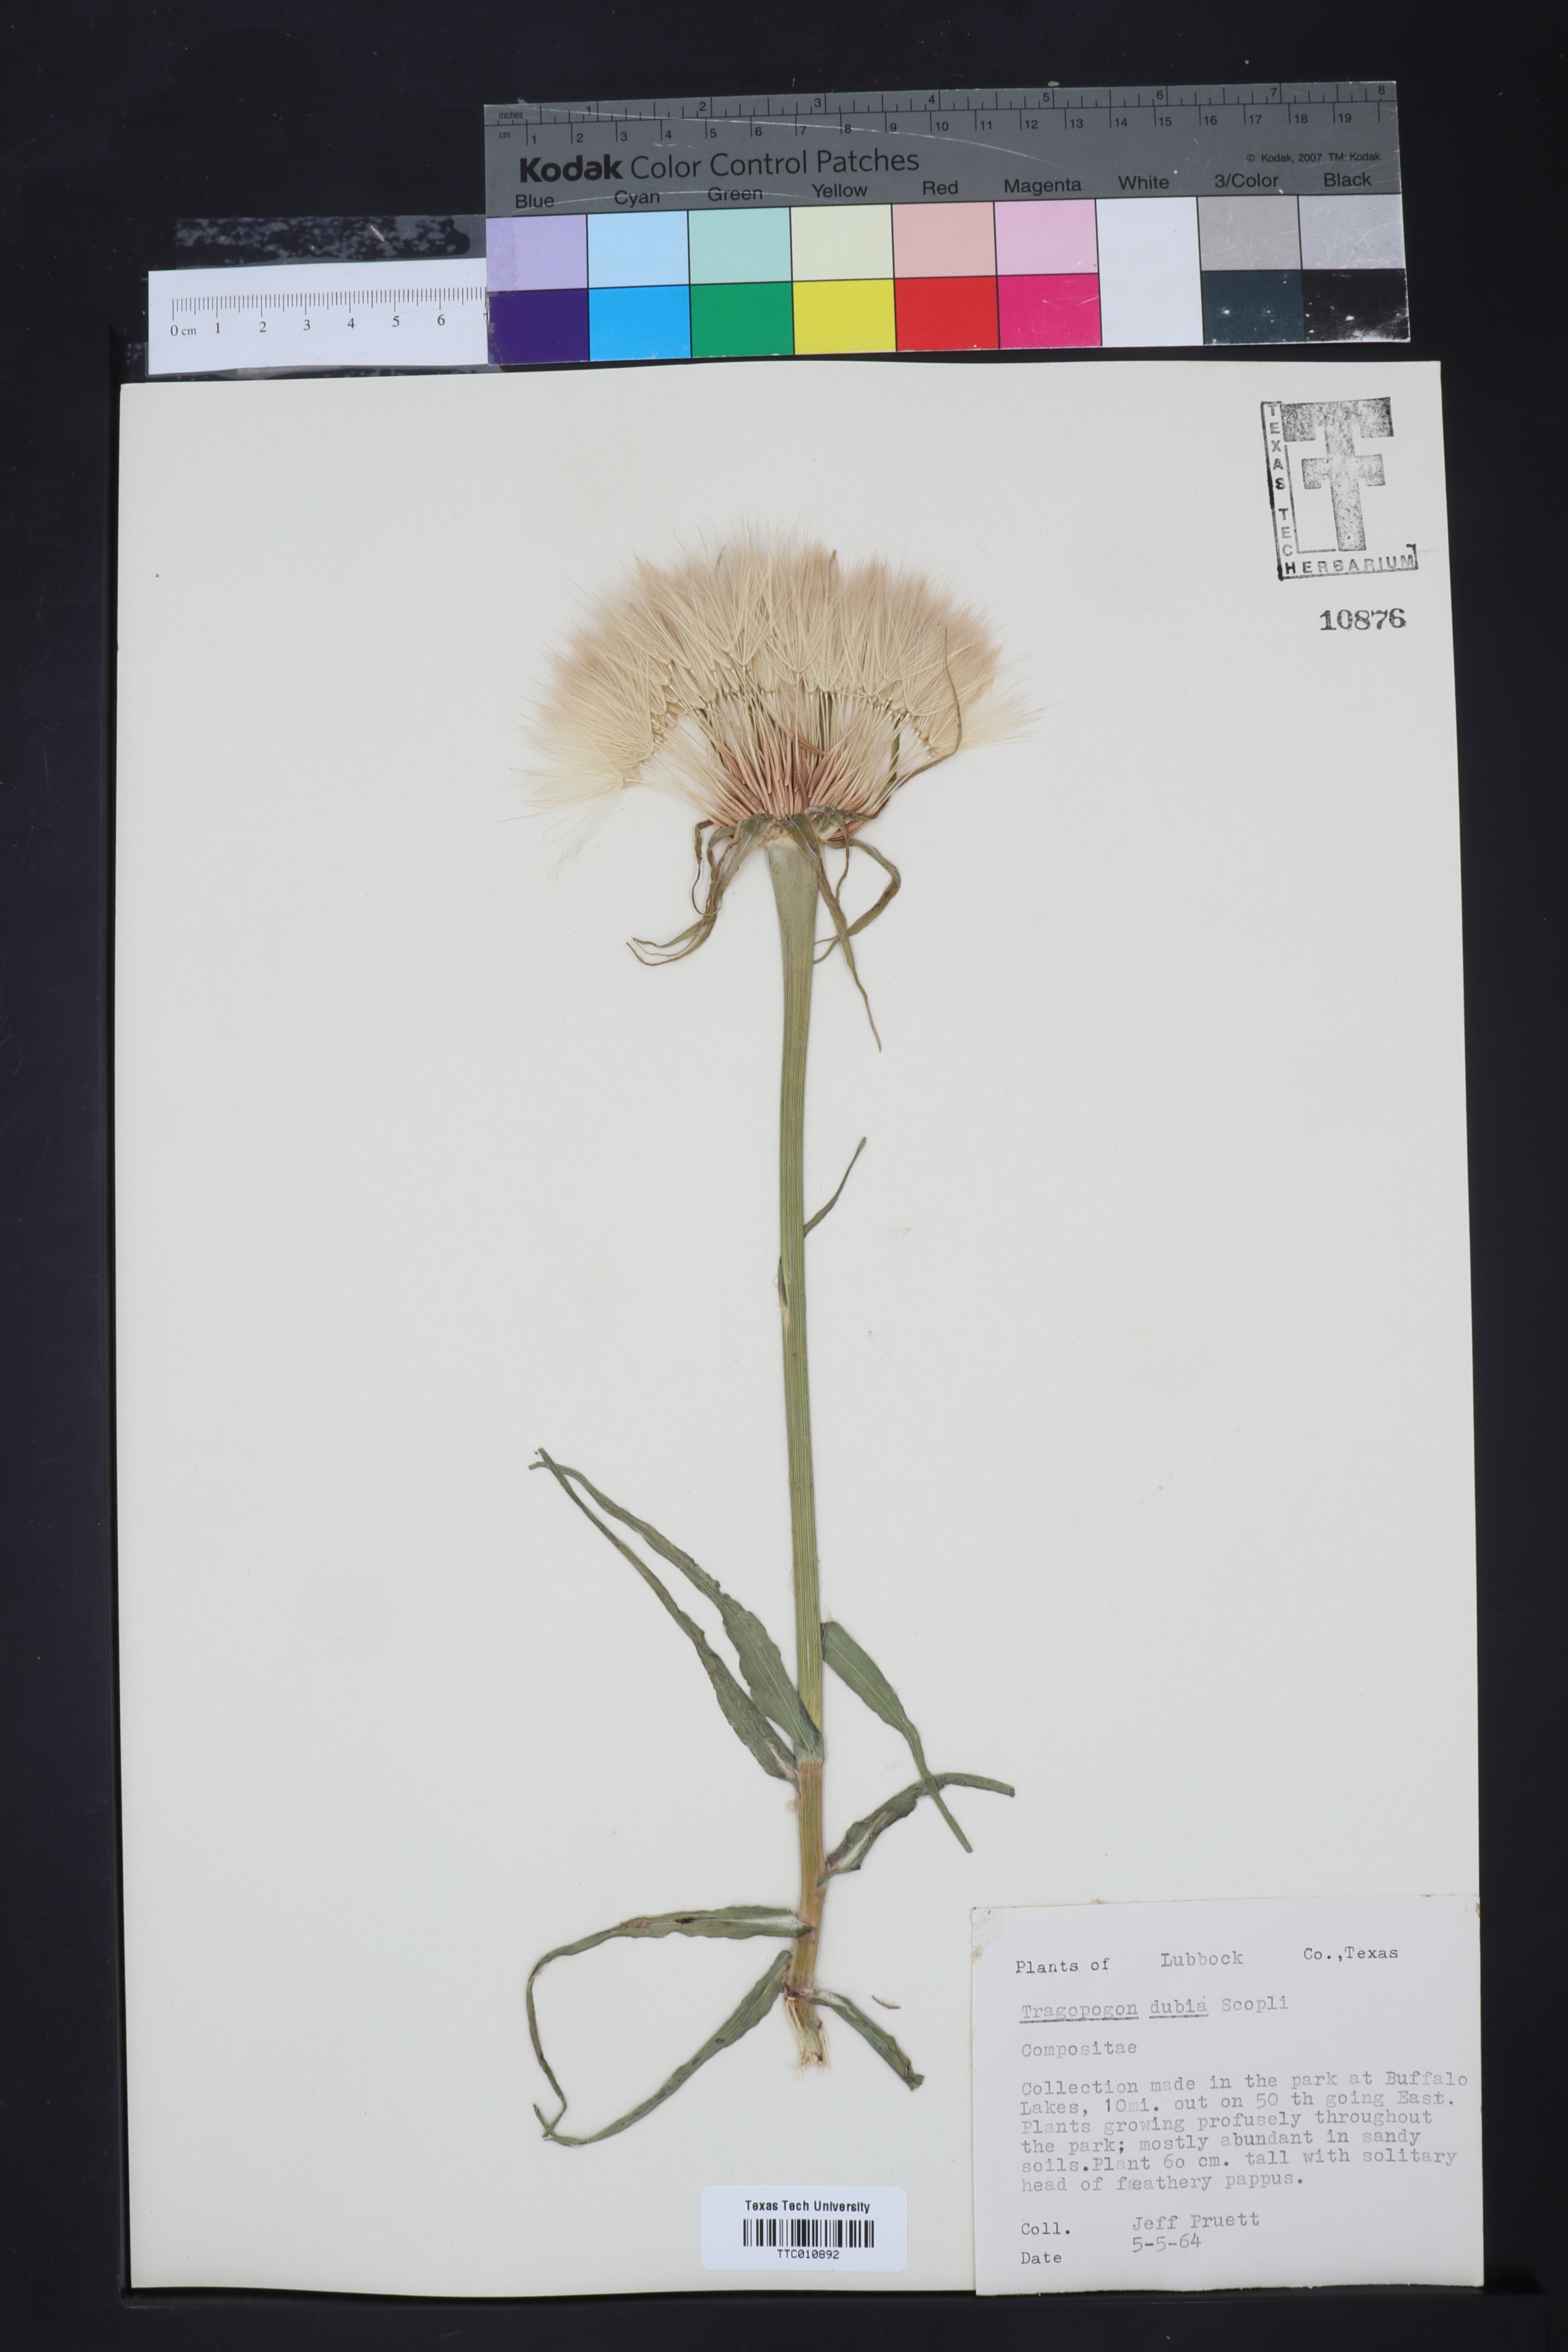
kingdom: Plantae
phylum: Tracheophyta
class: Magnoliopsida
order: Asterales
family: Asteraceae
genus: Tragopogon
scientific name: Tragopogon dubius
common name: Yellow salsify
